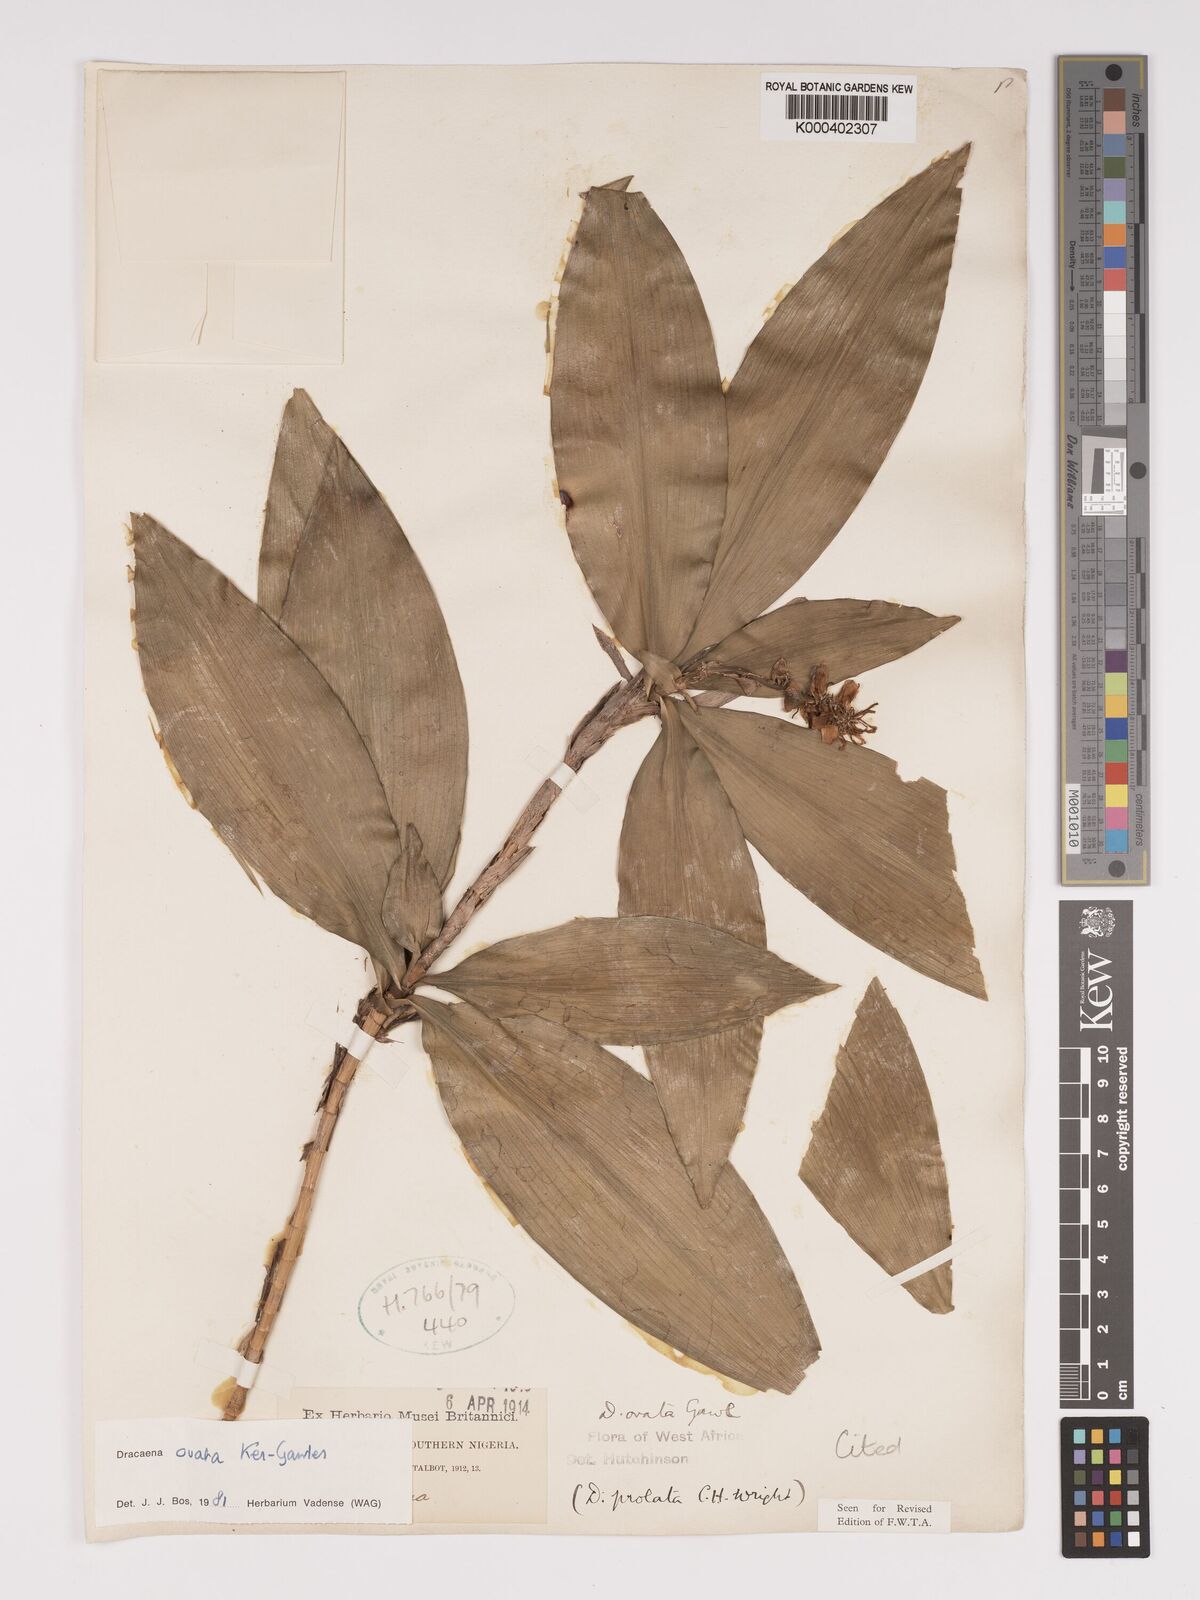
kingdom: Plantae
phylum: Tracheophyta
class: Liliopsida
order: Asparagales
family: Asparagaceae
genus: Dracaena
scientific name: Dracaena ovata
